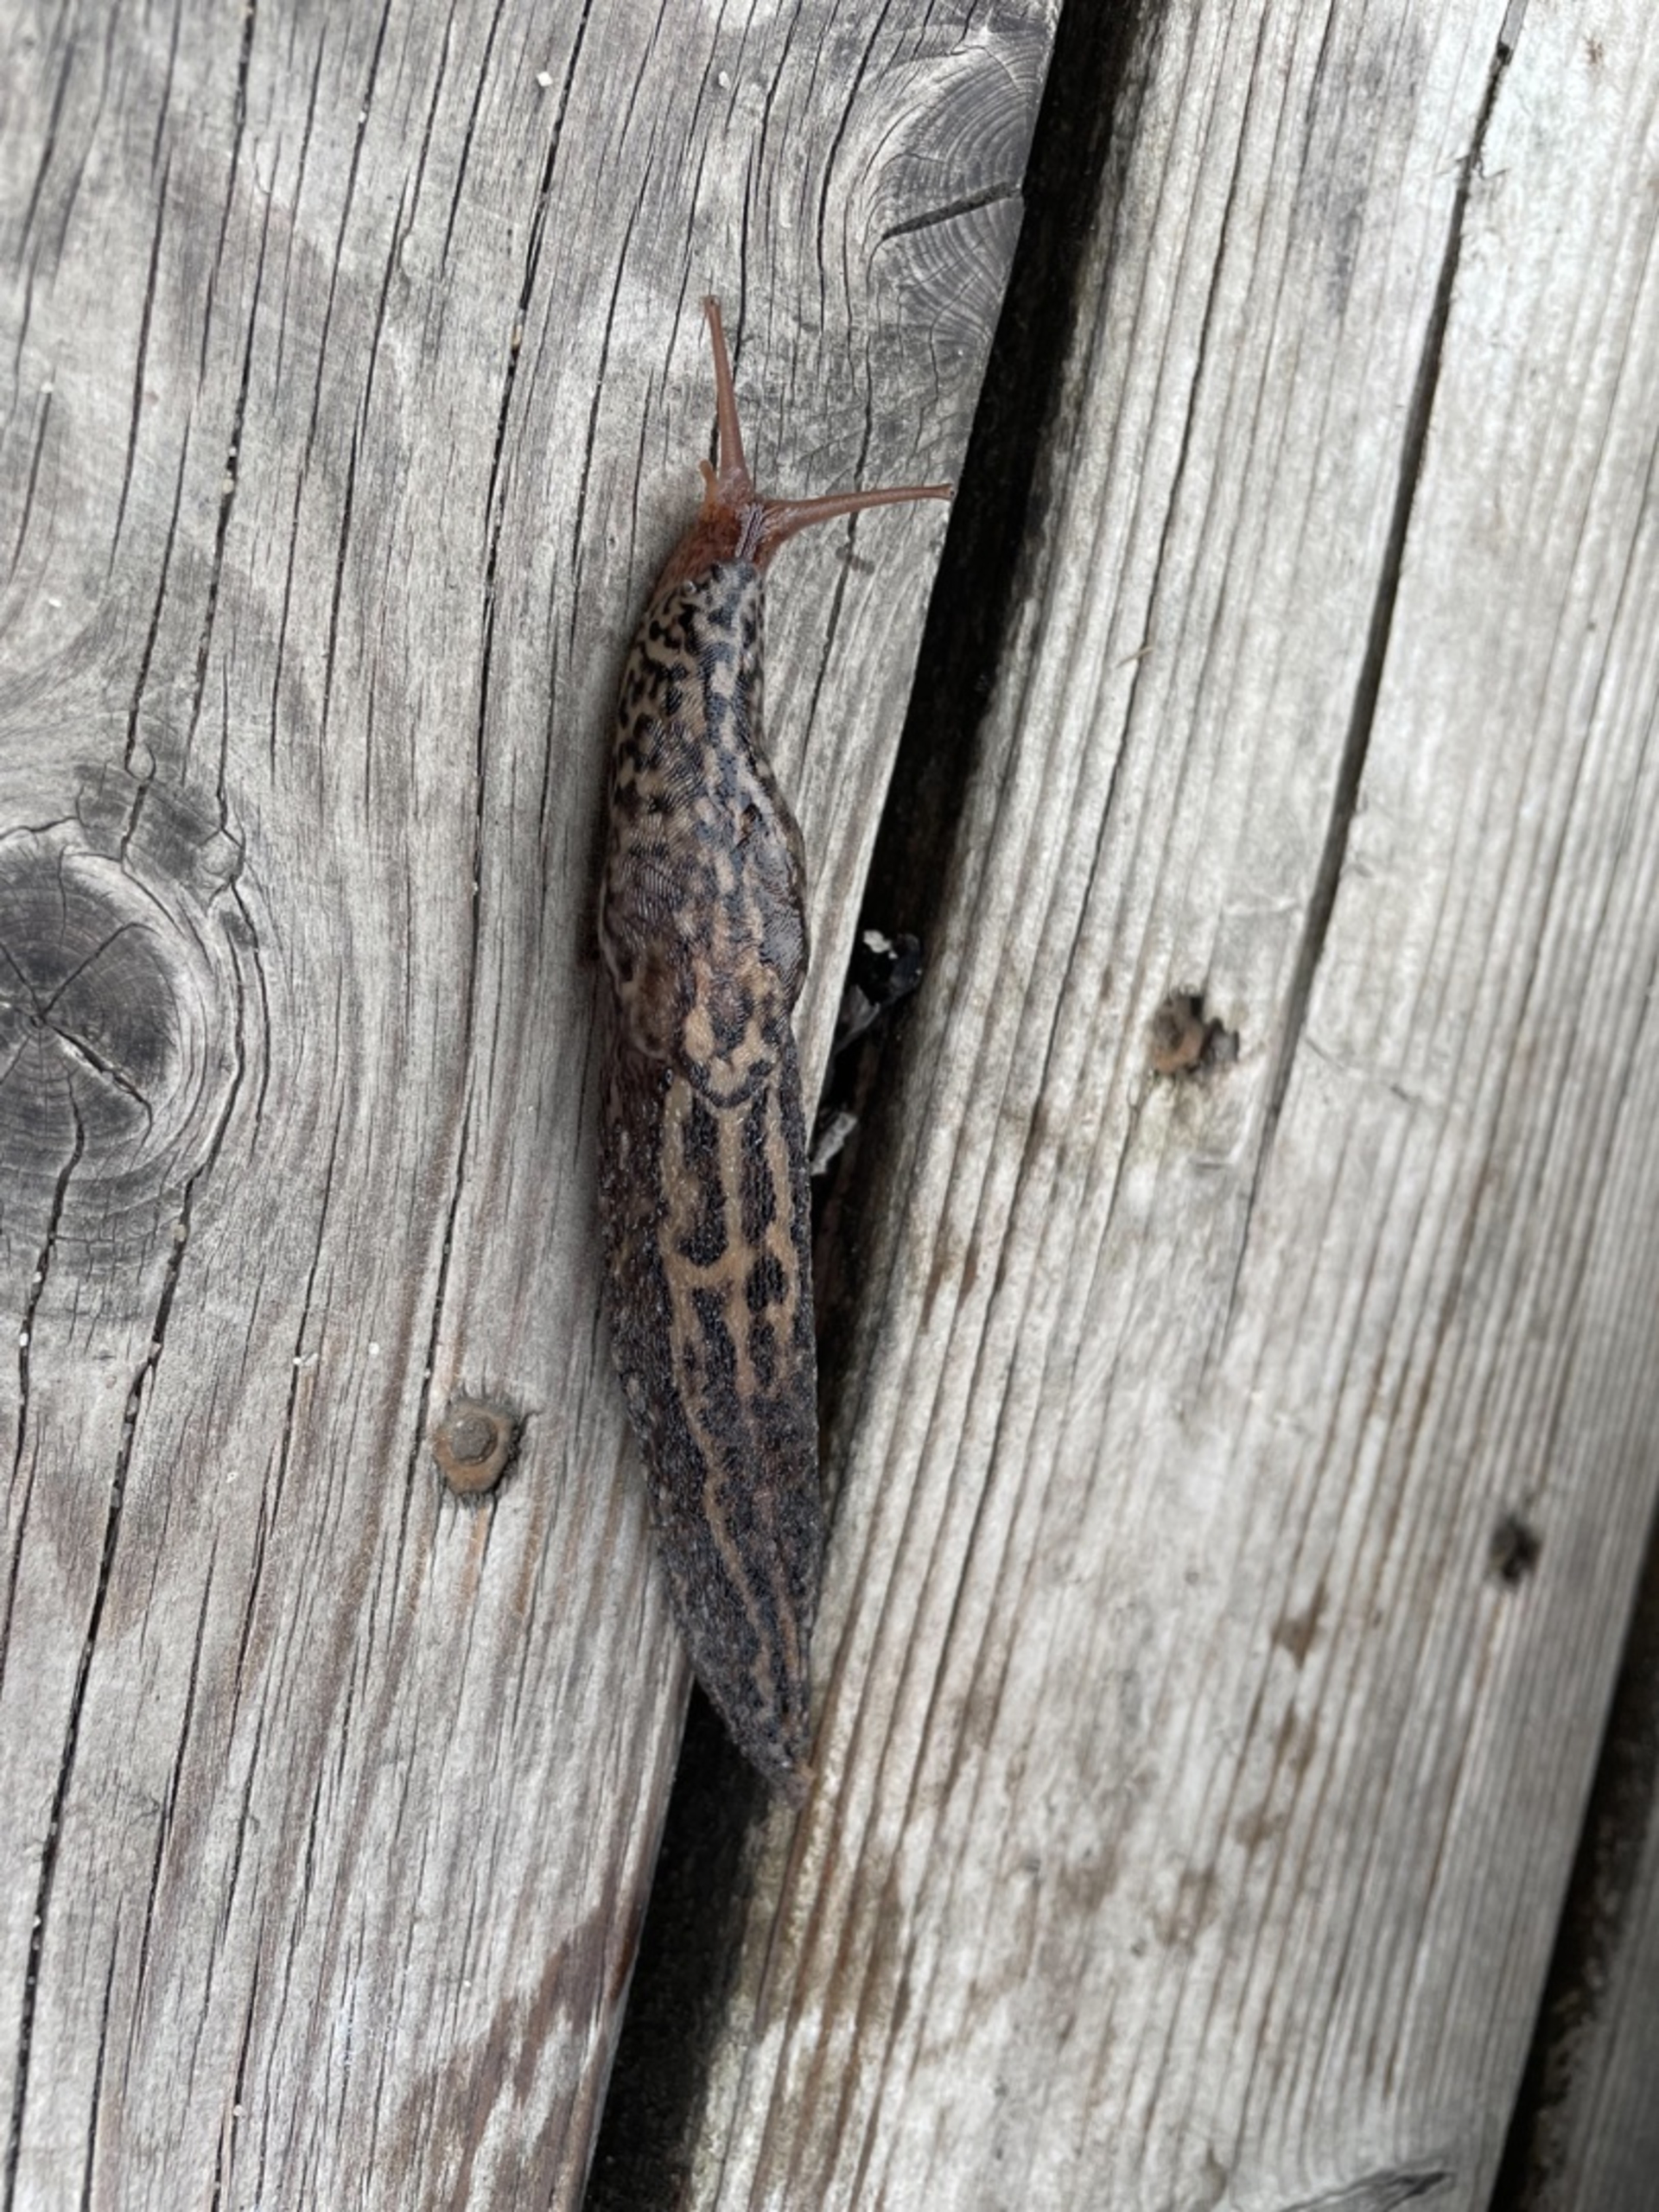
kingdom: Animalia
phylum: Mollusca
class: Gastropoda
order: Stylommatophora
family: Limacidae
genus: Limax
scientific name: Limax maximus
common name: Pantersnegl
